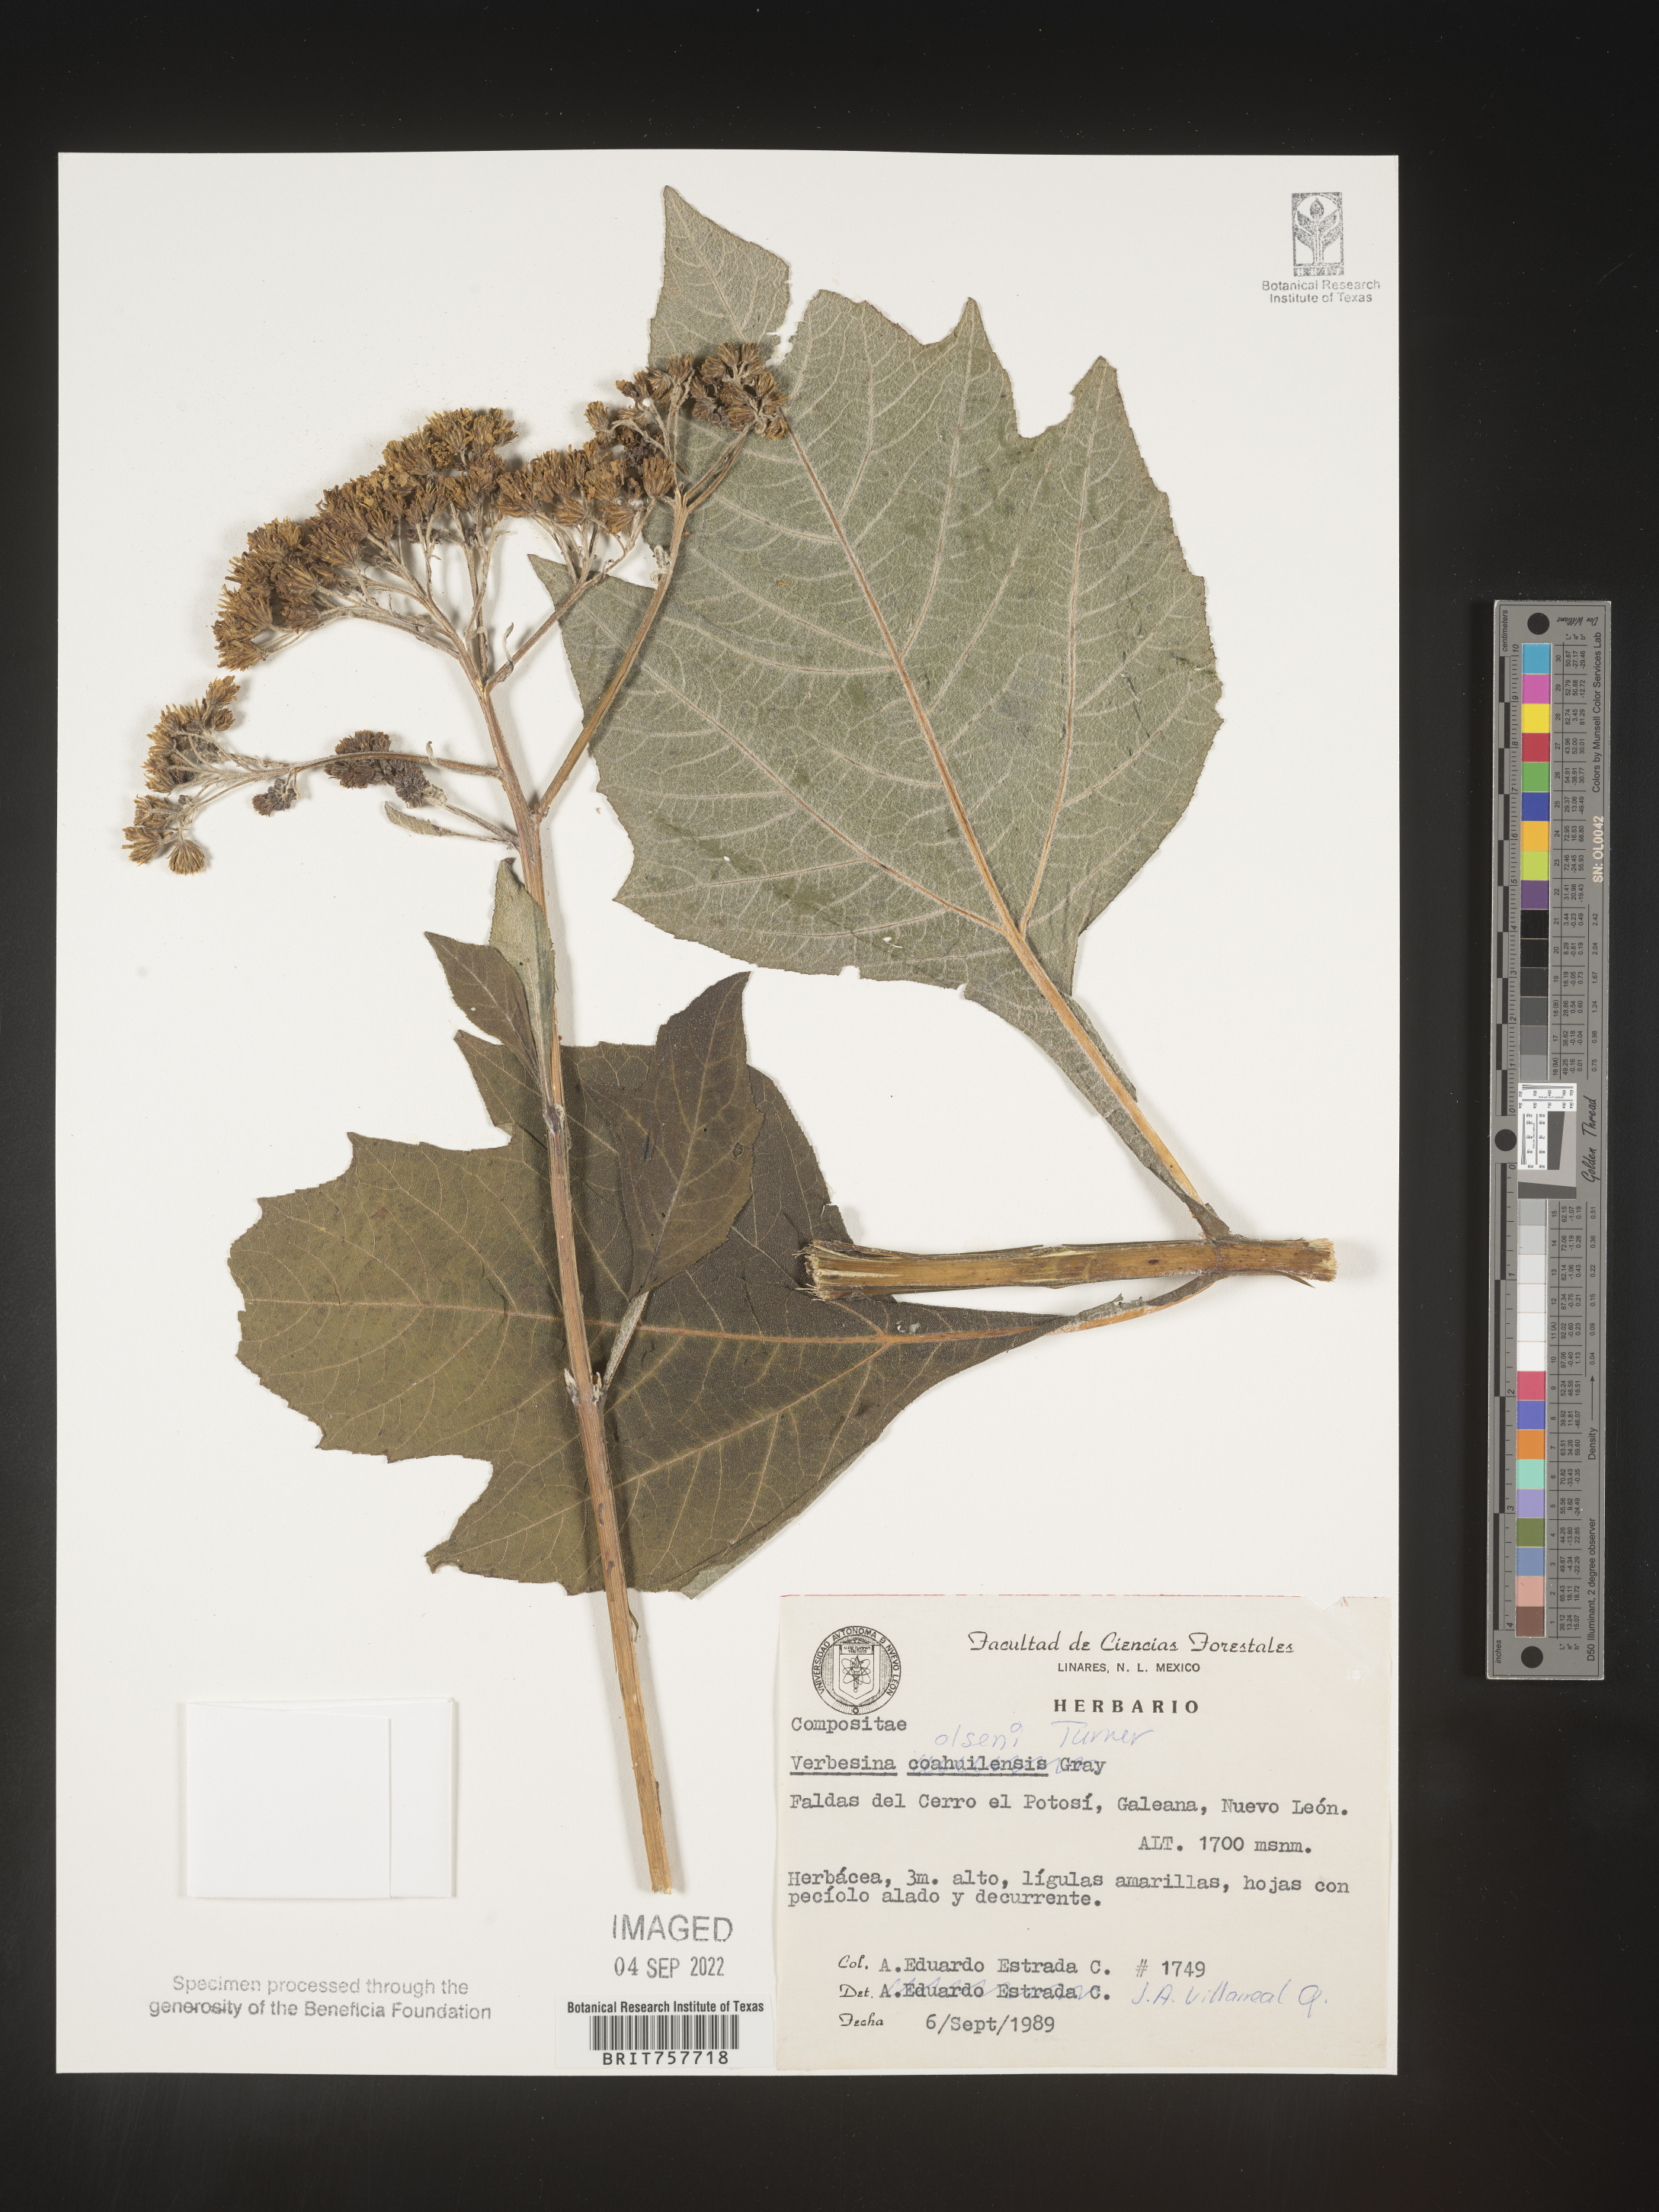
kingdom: Plantae
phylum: Tracheophyta
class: Magnoliopsida
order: Asterales
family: Asteraceae
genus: Verbesina
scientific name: Verbesina
